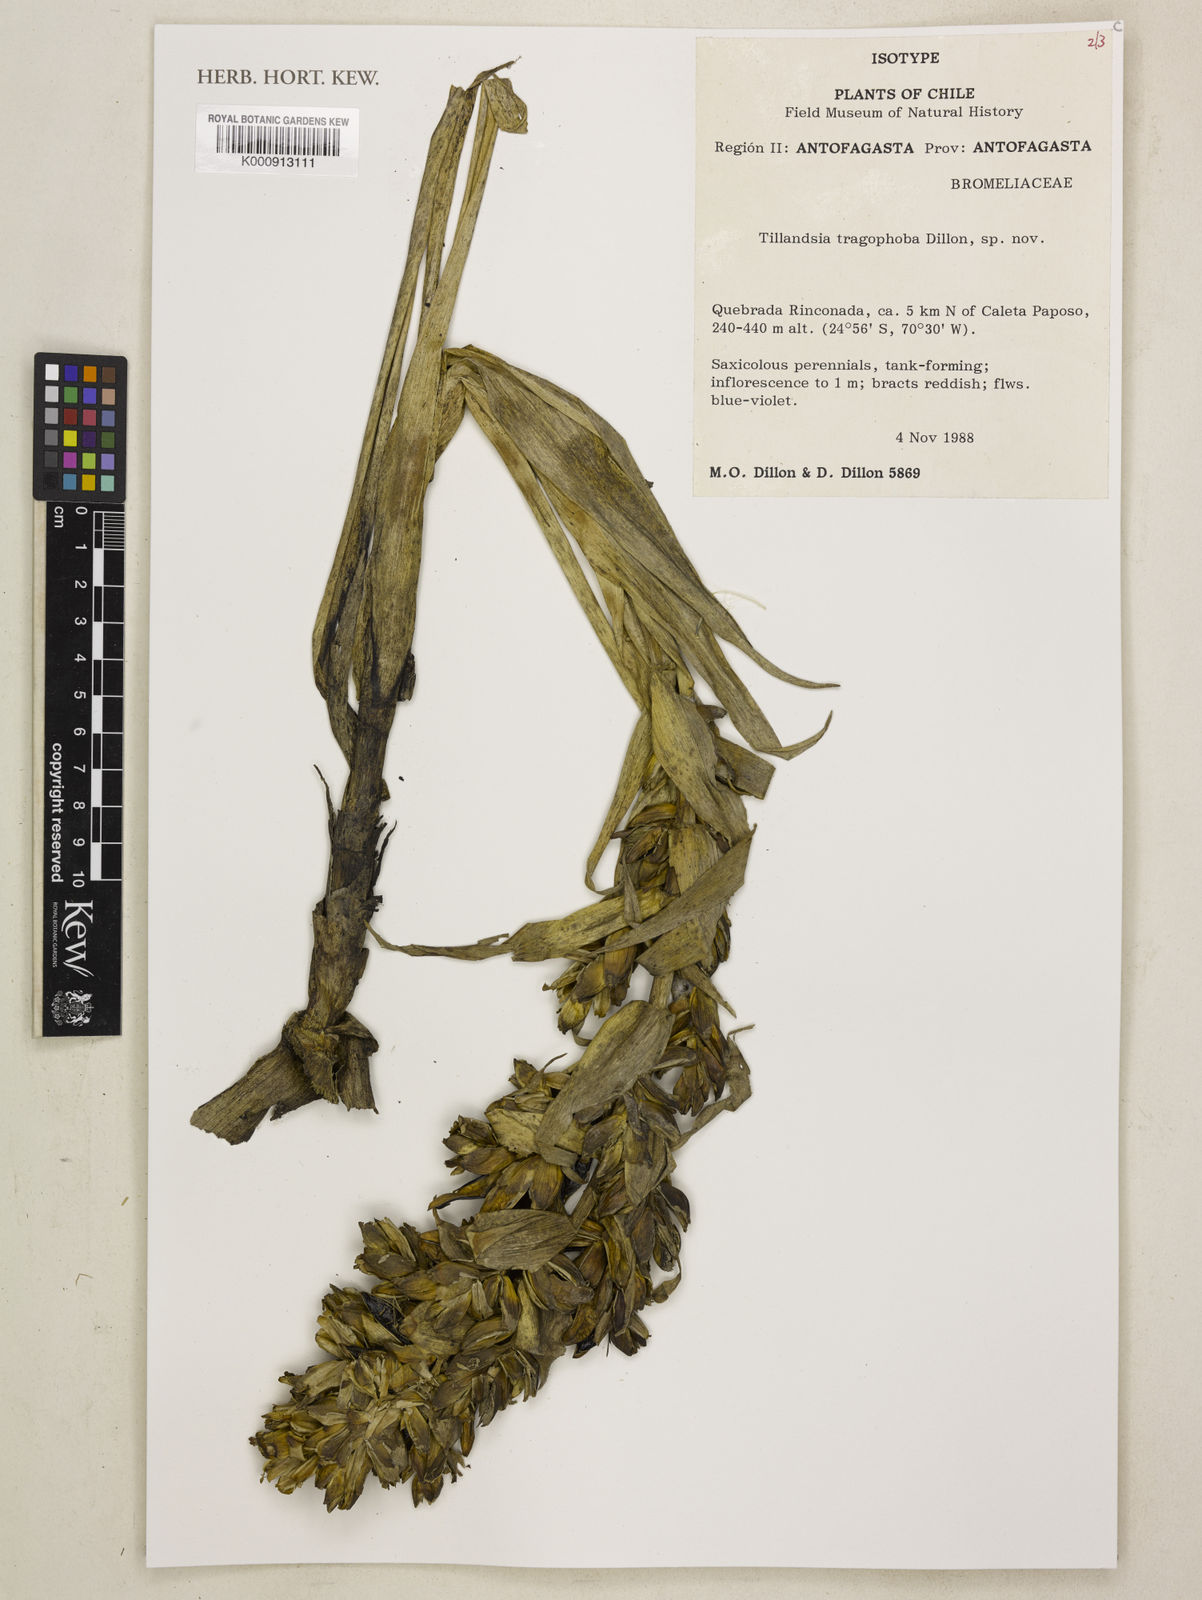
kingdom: Plantae
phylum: Tracheophyta
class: Liliopsida
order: Poales
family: Bromeliaceae
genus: Tillandsia
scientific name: Tillandsia tragophoba
